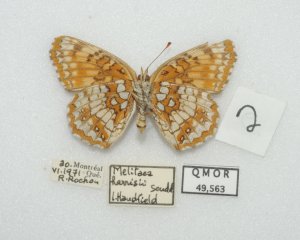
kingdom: Animalia
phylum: Arthropoda
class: Insecta
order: Lepidoptera
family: Nymphalidae
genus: Chlosyne
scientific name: Chlosyne harrisii
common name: Harris's Checkerspot
